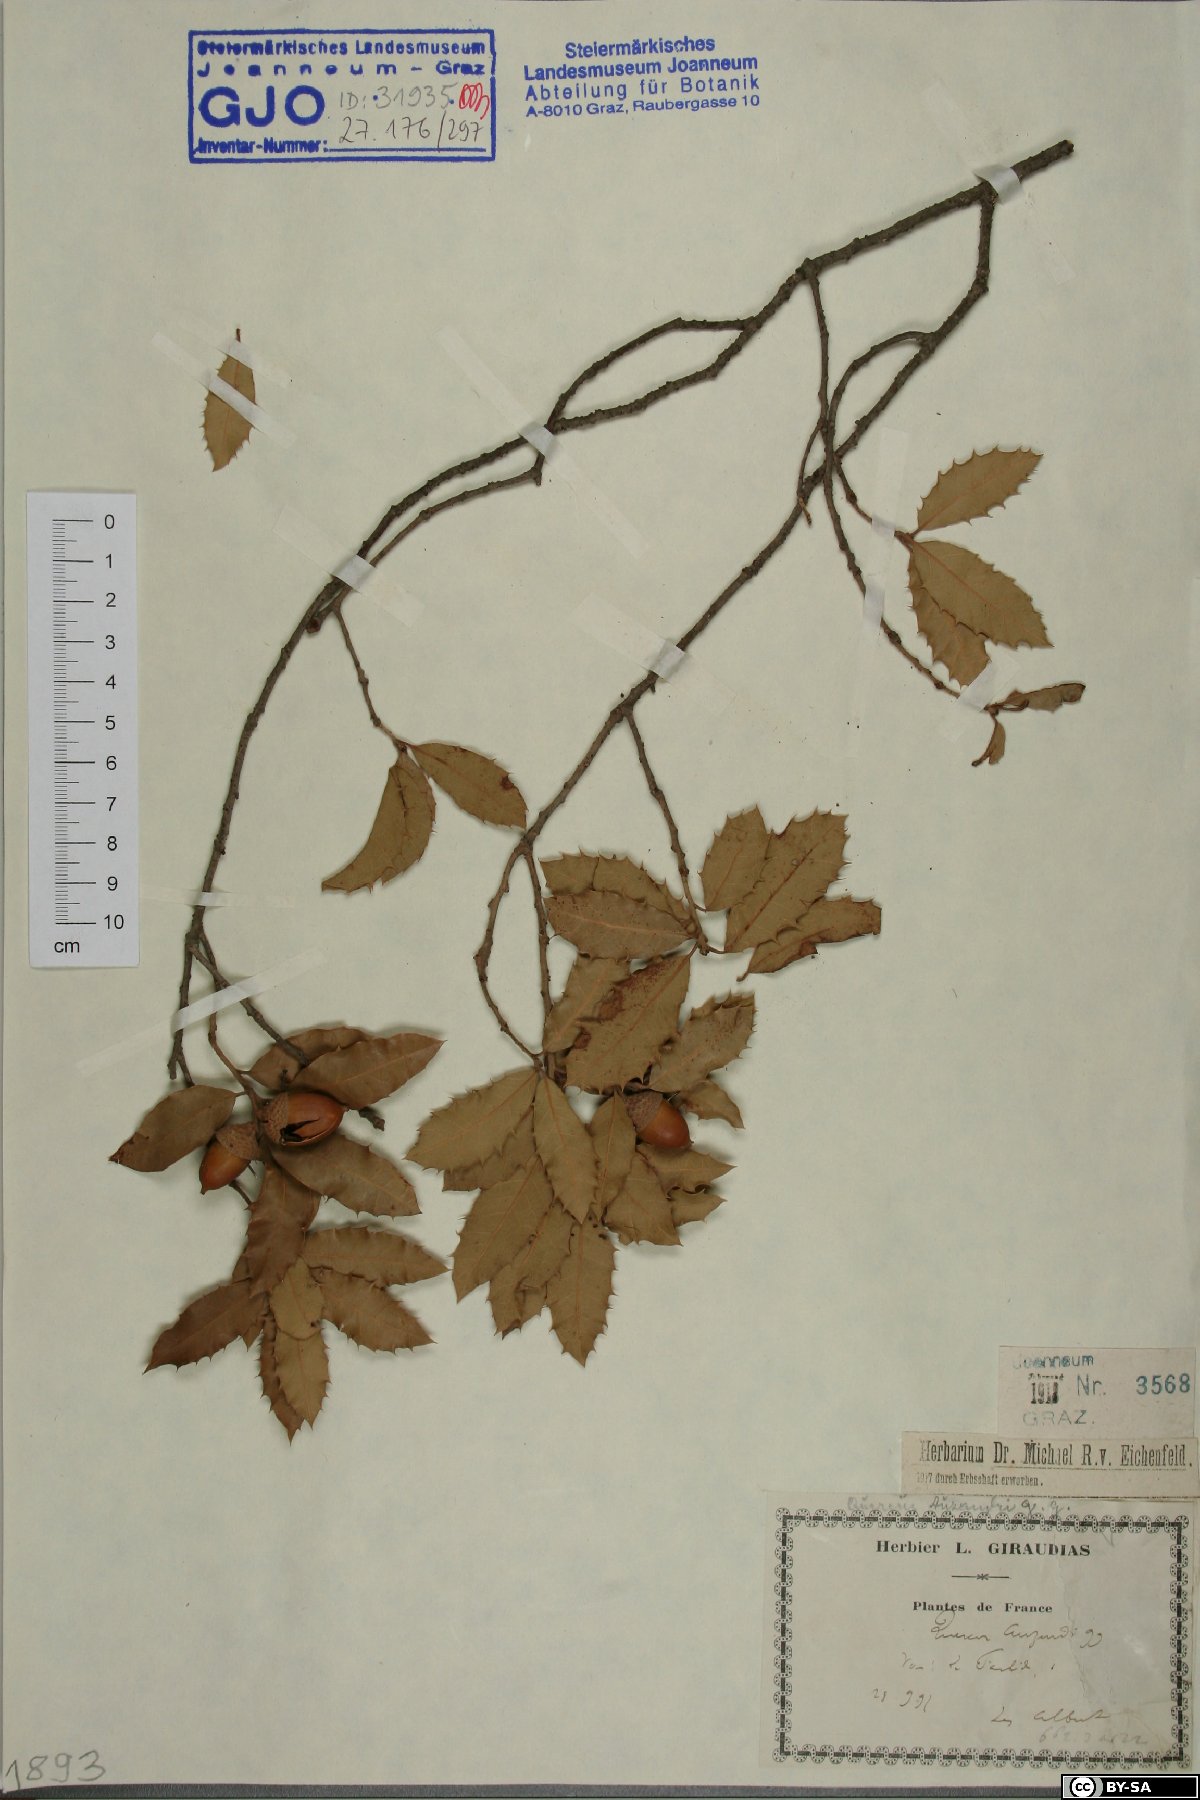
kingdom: Plantae
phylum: Tracheophyta
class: Magnoliopsida
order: Fagales
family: Fagaceae
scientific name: Fagaceae
